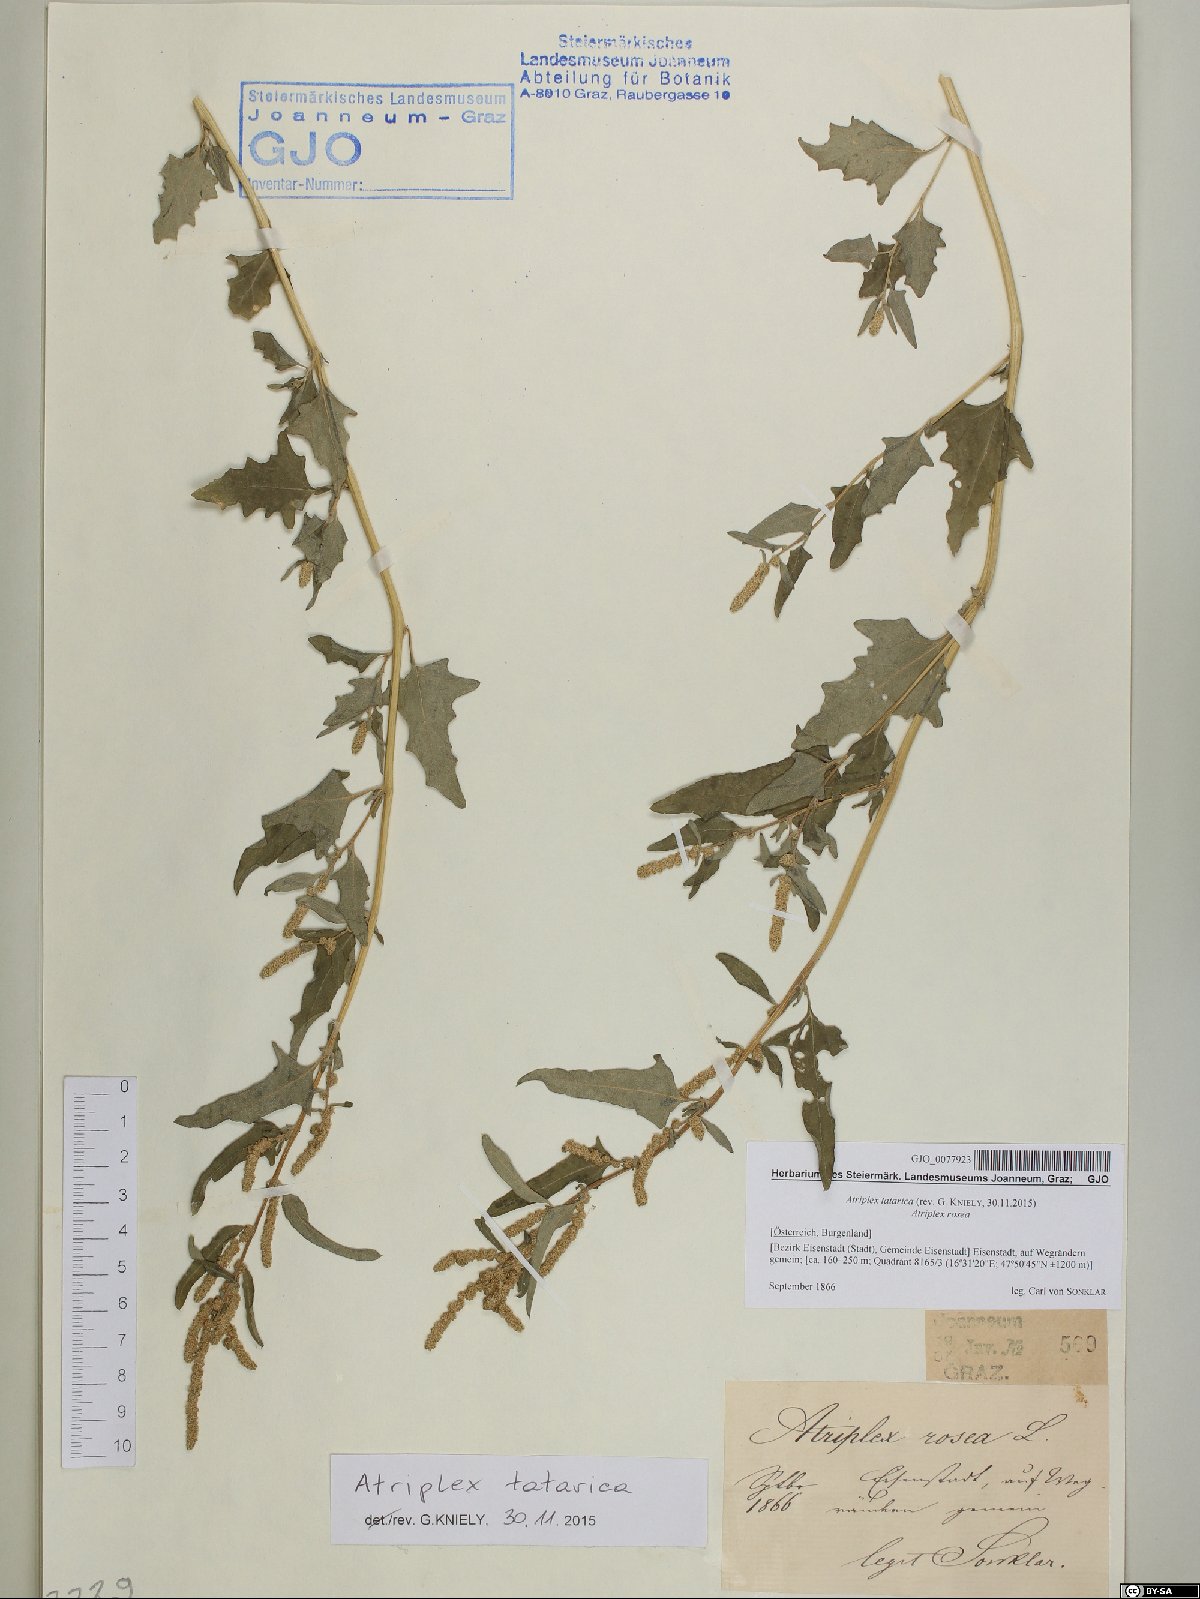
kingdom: Plantae
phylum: Tracheophyta
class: Magnoliopsida
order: Caryophyllales
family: Amaranthaceae
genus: Atriplex
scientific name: Atriplex tatarica
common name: Tatarian orache
